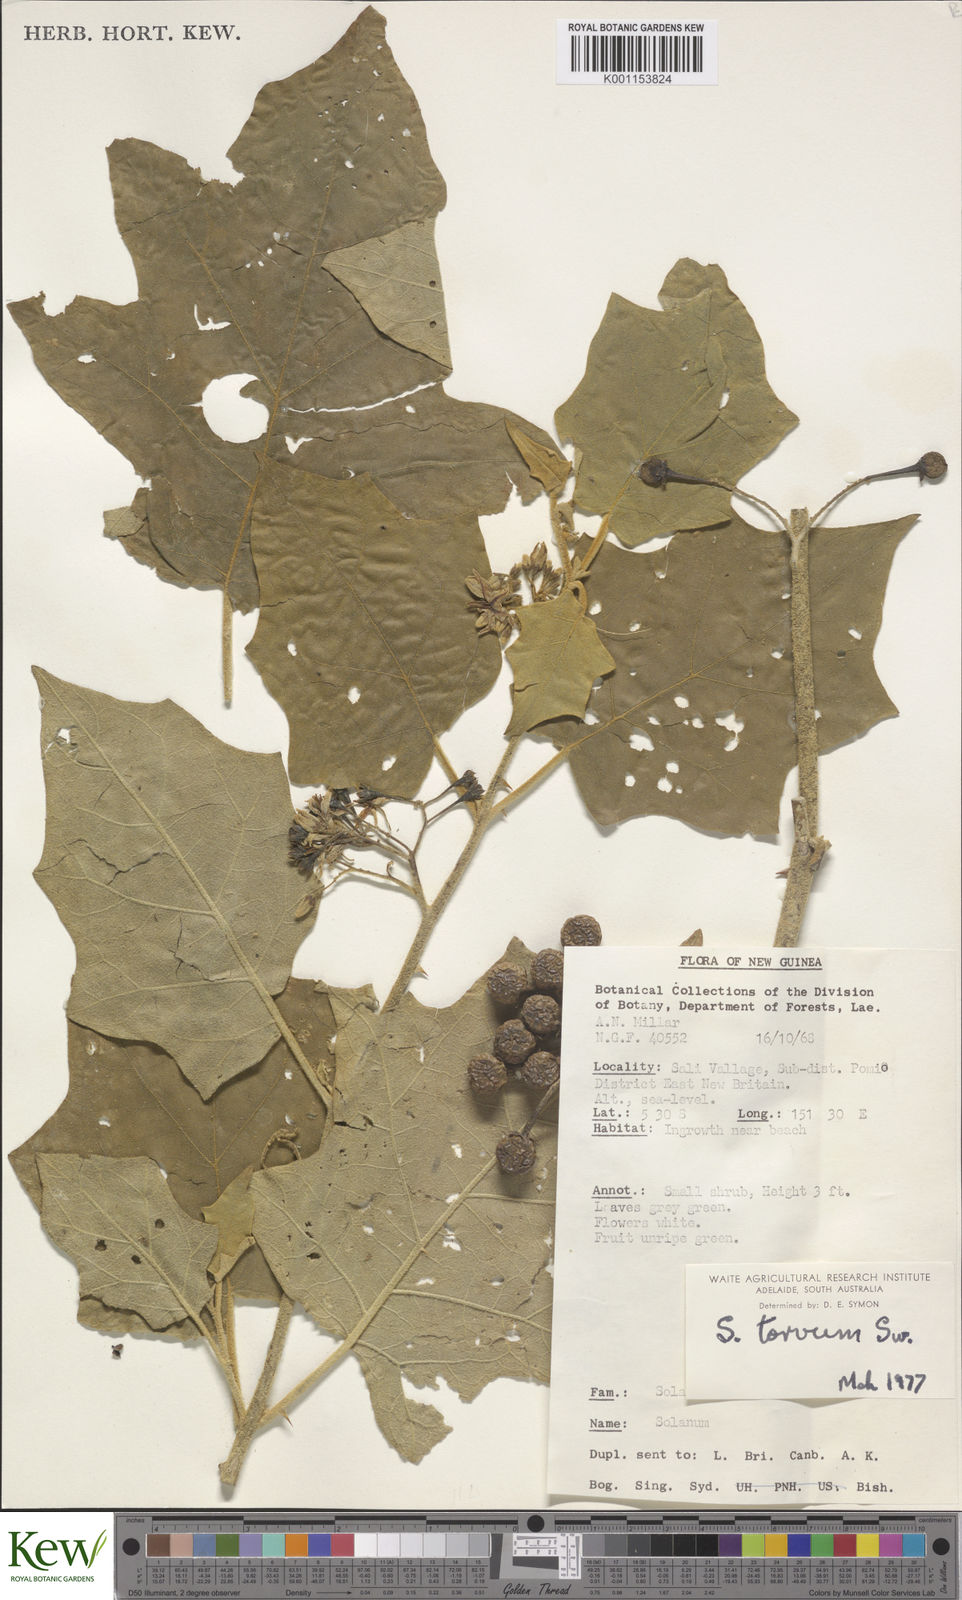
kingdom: Plantae
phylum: Tracheophyta
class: Magnoliopsida
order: Solanales
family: Solanaceae
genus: Solanum
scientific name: Solanum torvum
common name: Turkey berry
